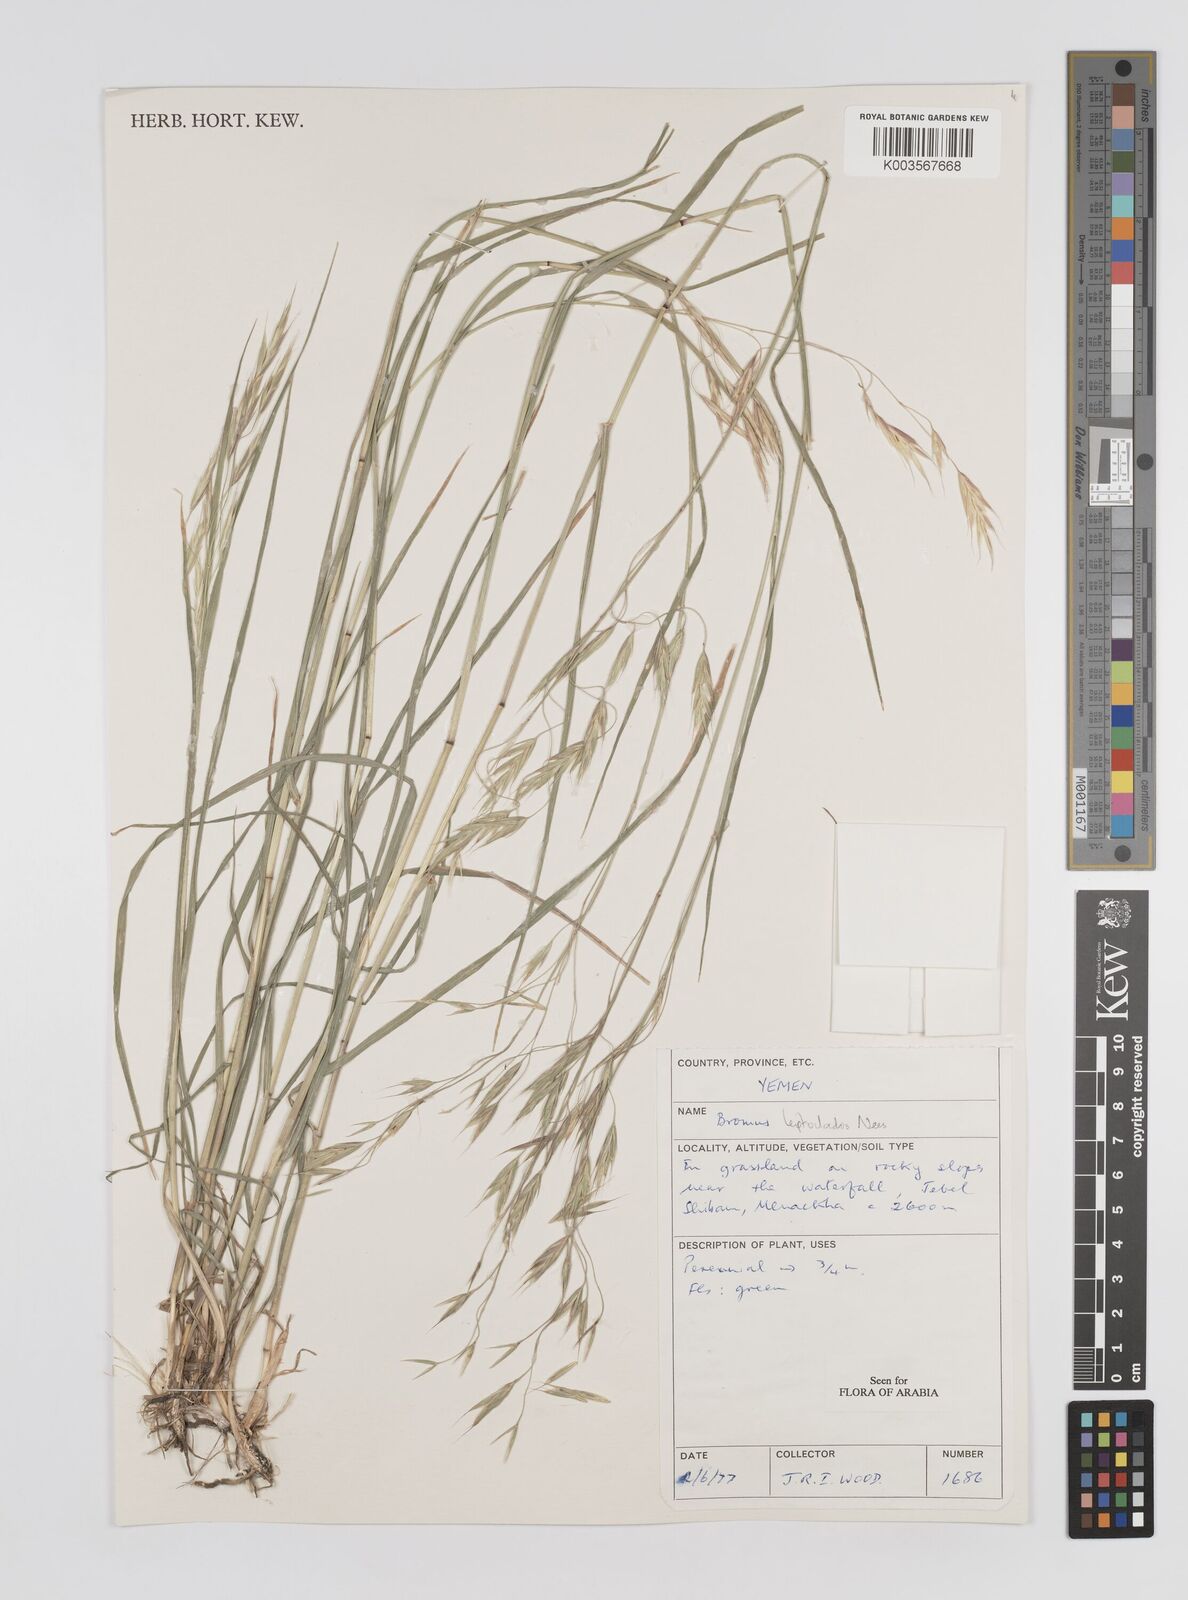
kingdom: Plantae
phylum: Tracheophyta
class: Liliopsida
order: Poales
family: Poaceae
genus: Bromus
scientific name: Bromus leptoclados
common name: Mountain bromegrass
